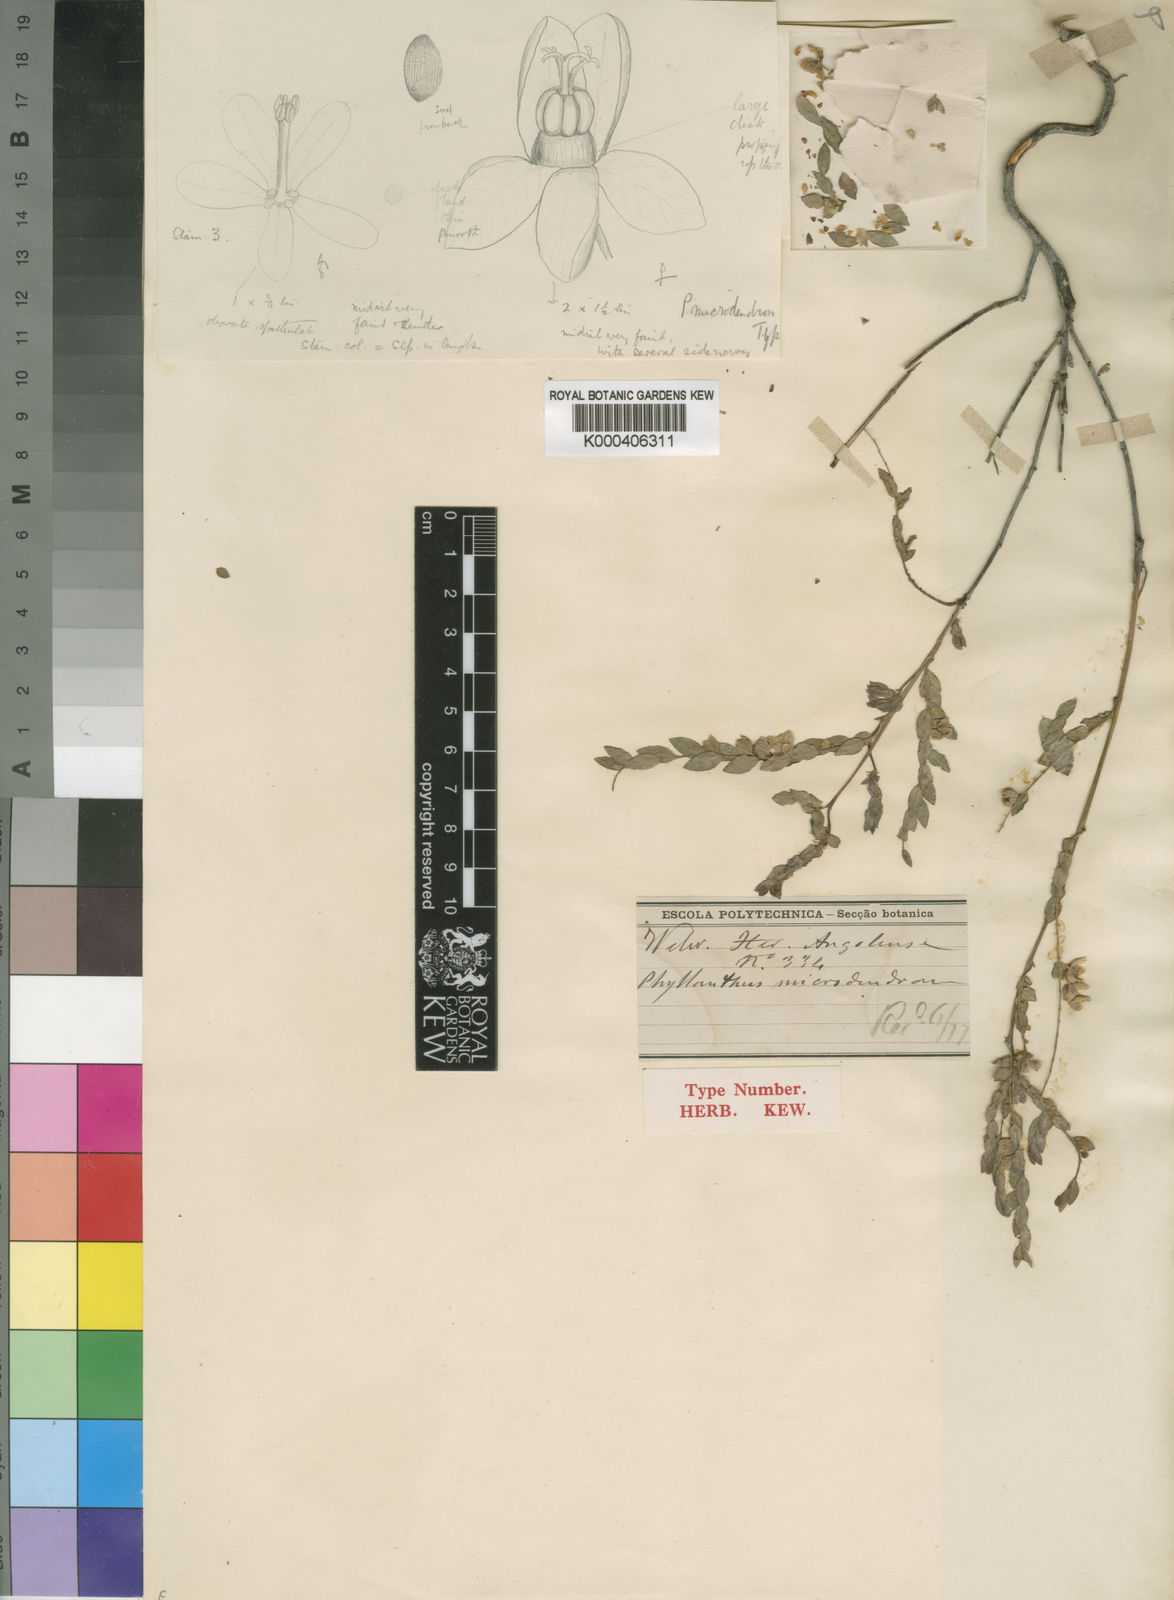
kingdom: Plantae
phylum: Tracheophyta
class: Magnoliopsida
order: Malpighiales
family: Phyllanthaceae
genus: Phyllanthus
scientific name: Phyllanthus
